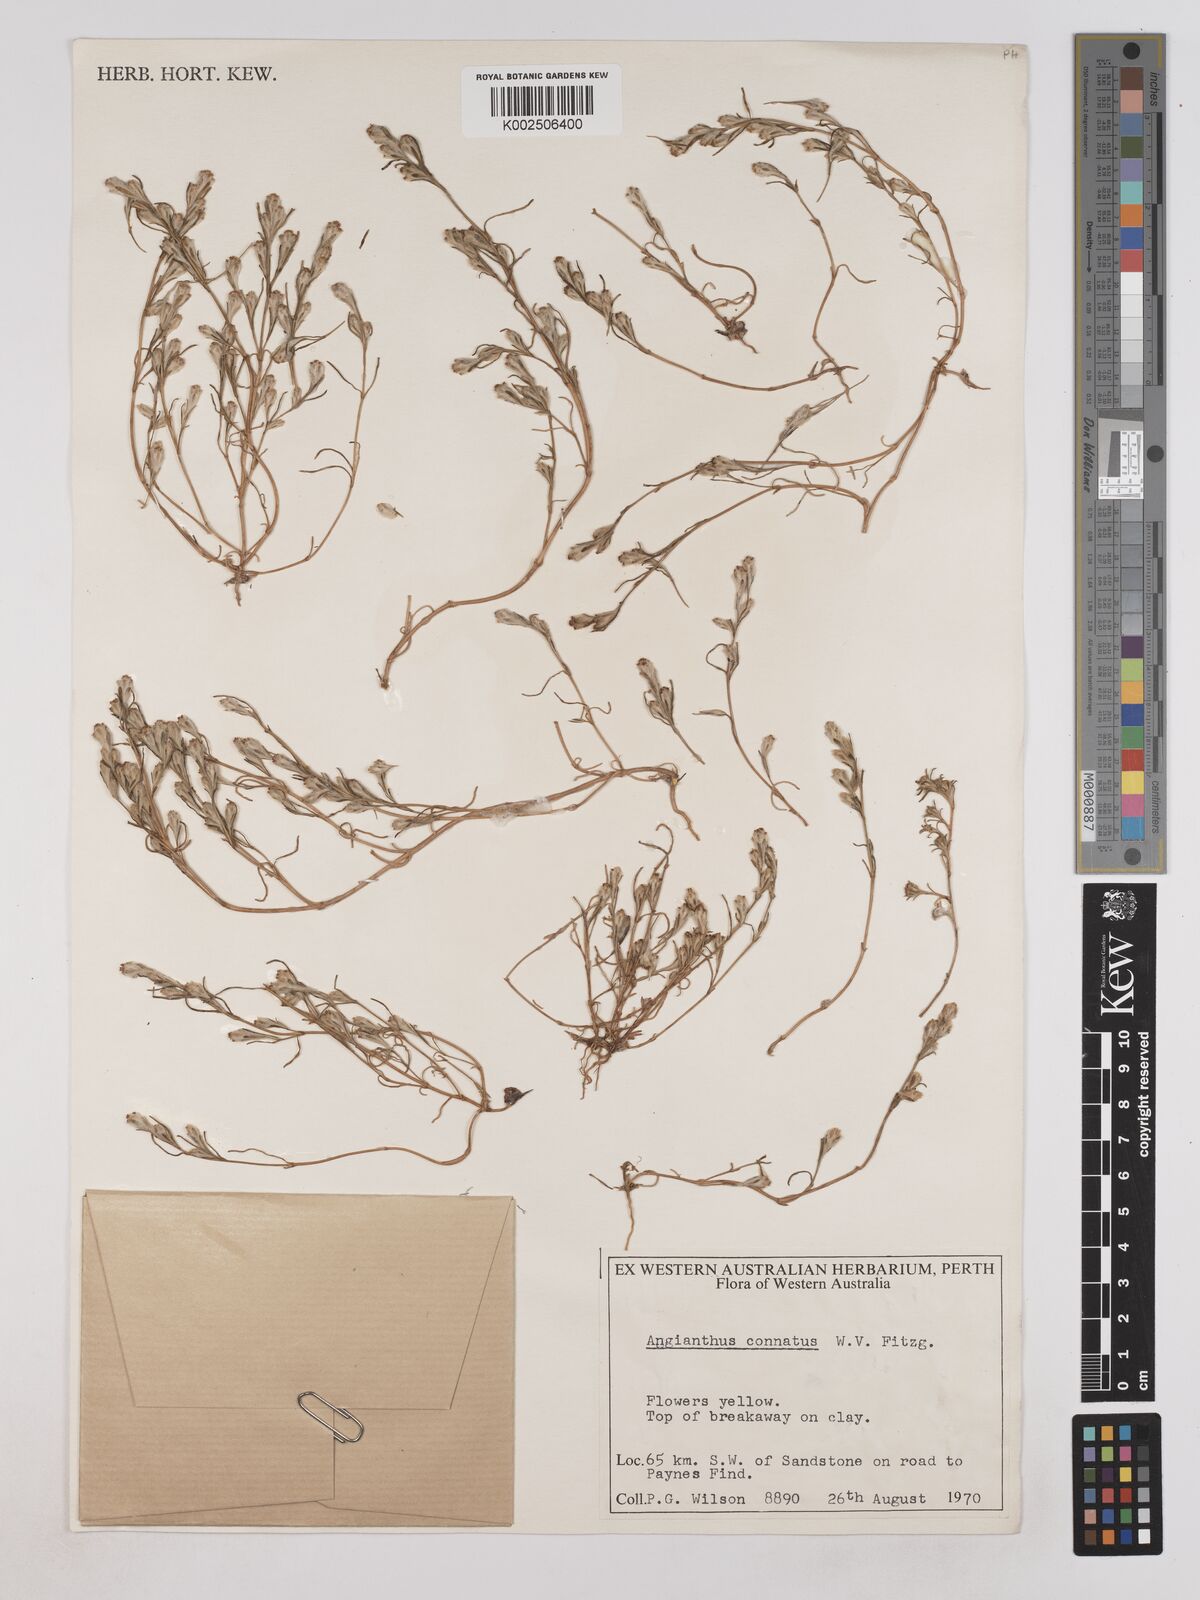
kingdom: Plantae
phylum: Tracheophyta
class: Magnoliopsida
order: Asterales
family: Asteraceae
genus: Sondottia
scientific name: Sondottia connata
